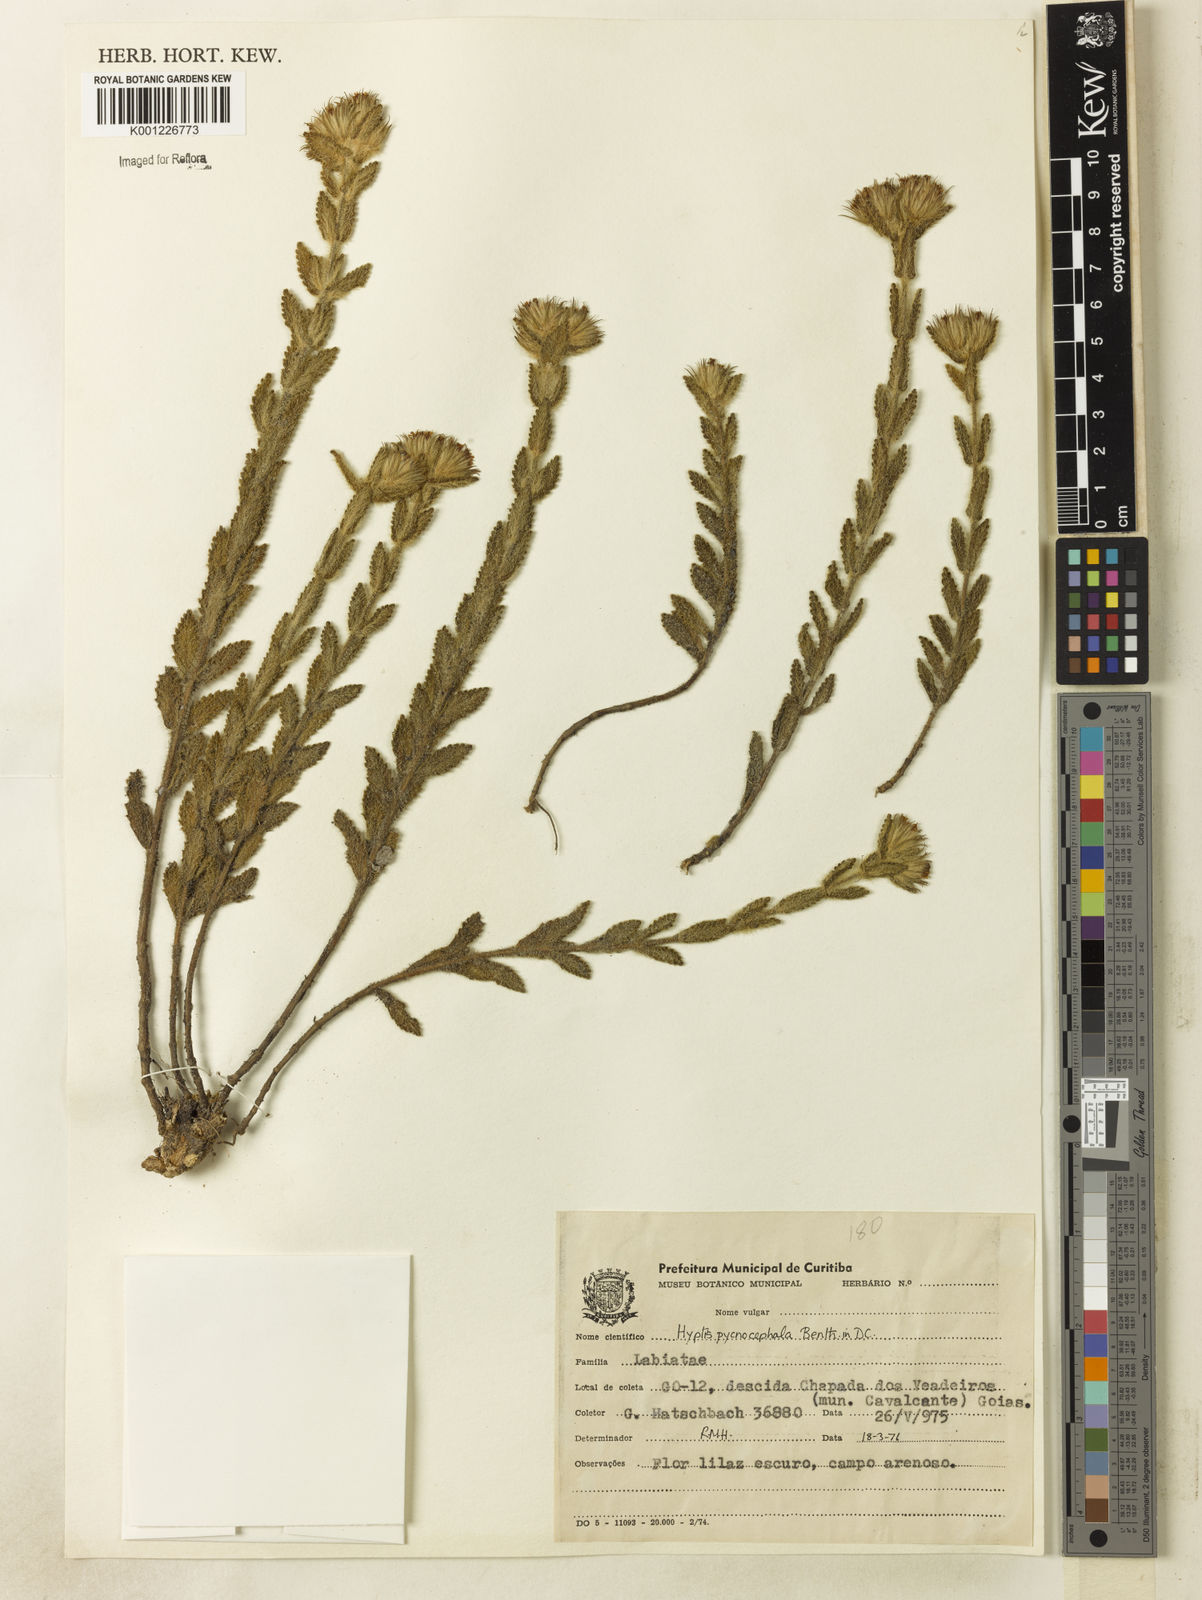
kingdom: Plantae
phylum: Tracheophyta
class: Magnoliopsida
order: Lamiales
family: Lamiaceae
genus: Hyptis
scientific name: Hyptis pycnocephala
